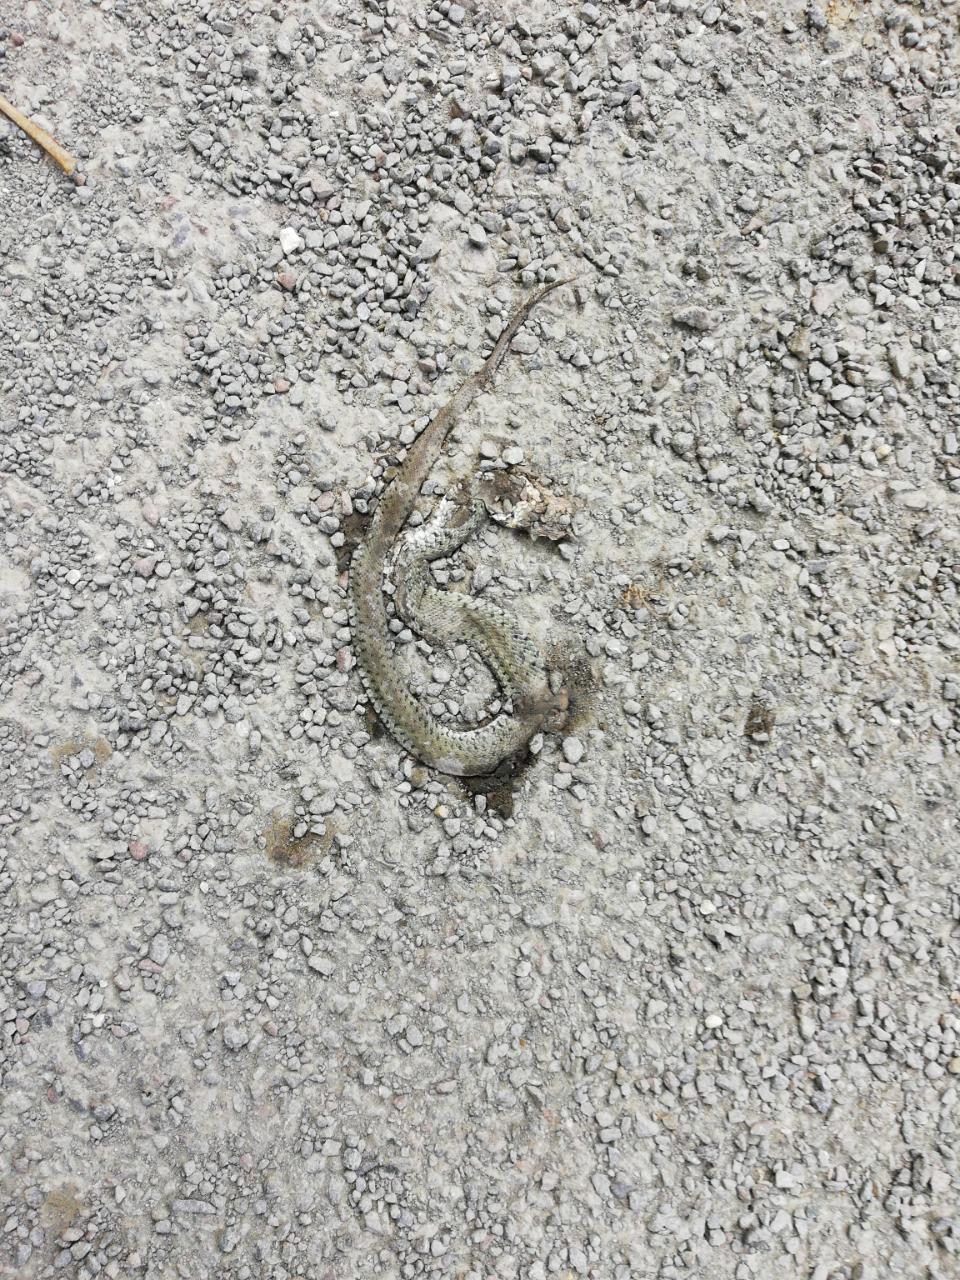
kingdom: Animalia
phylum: Chordata
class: Squamata
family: Colubridae
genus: Natrix
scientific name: Natrix natrix
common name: Grass snake
